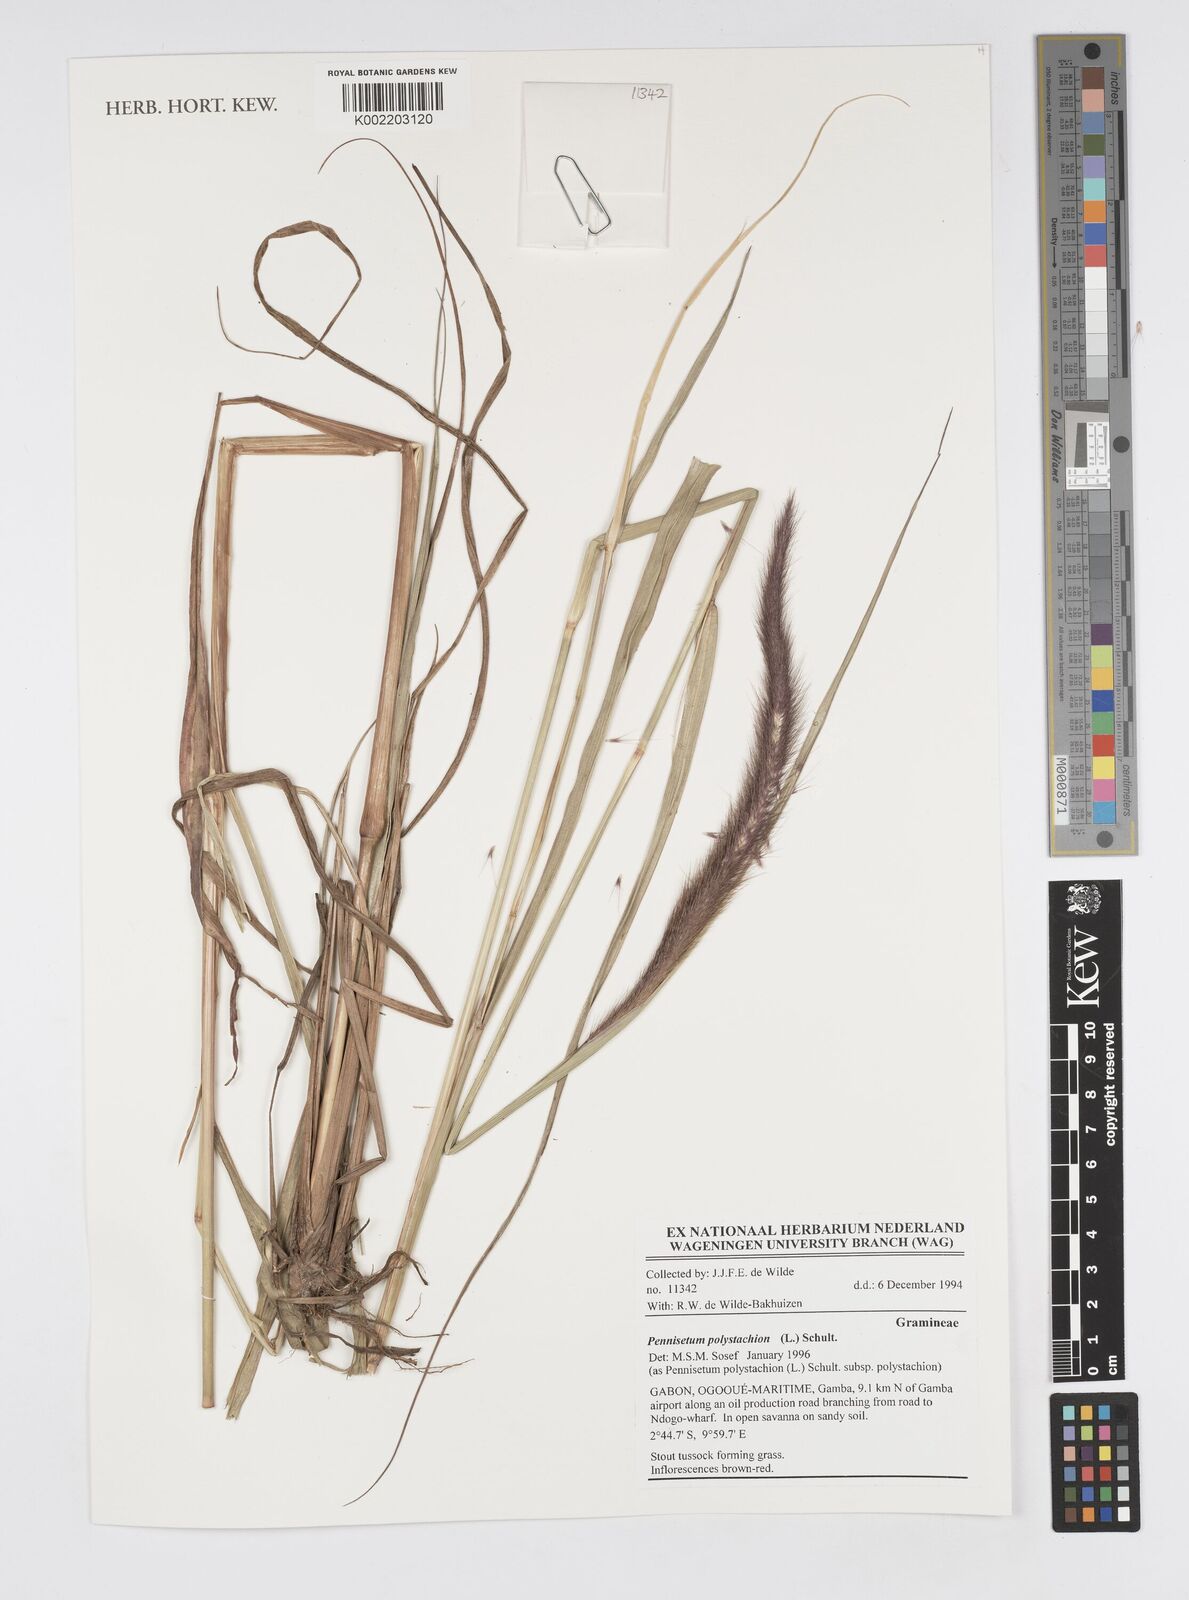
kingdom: Plantae
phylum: Tracheophyta
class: Liliopsida
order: Poales
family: Poaceae
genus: Setaria
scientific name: Setaria parviflora
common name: Knotroot bristle-grass
